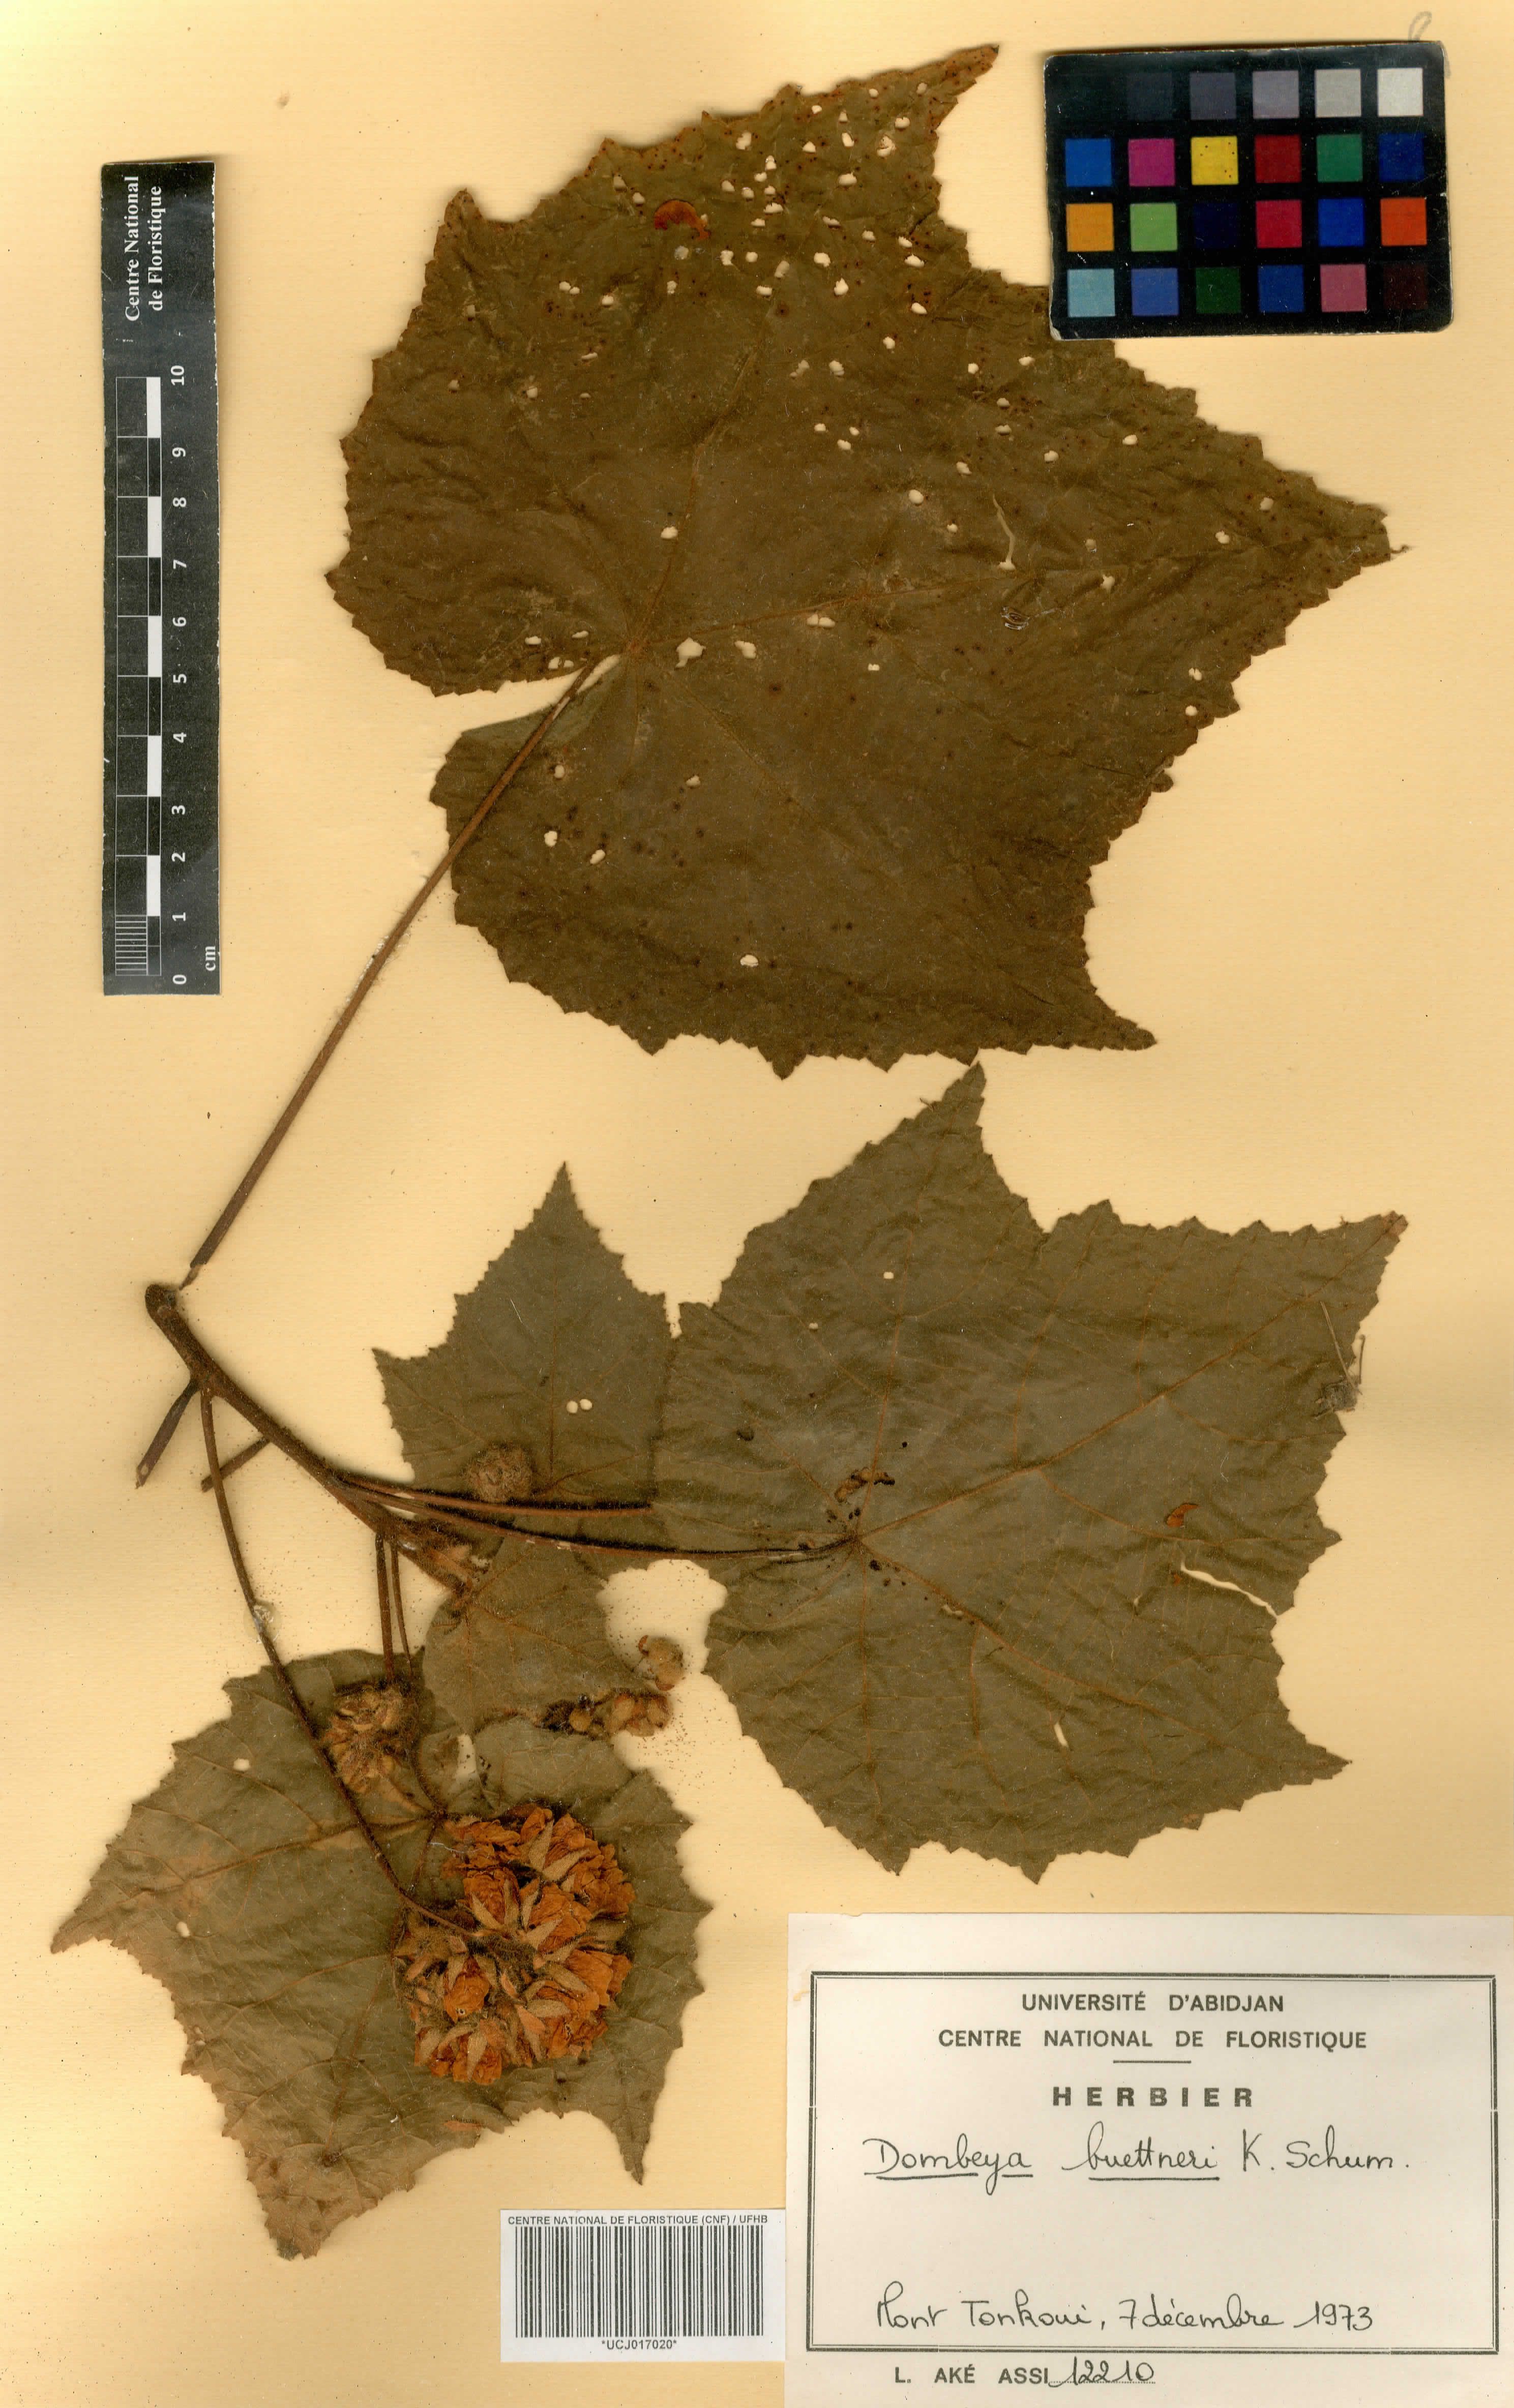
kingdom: Plantae
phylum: Tracheophyta
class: Magnoliopsida
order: Malvales
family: Malvaceae
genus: Dombeya
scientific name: Dombeya buettneri
